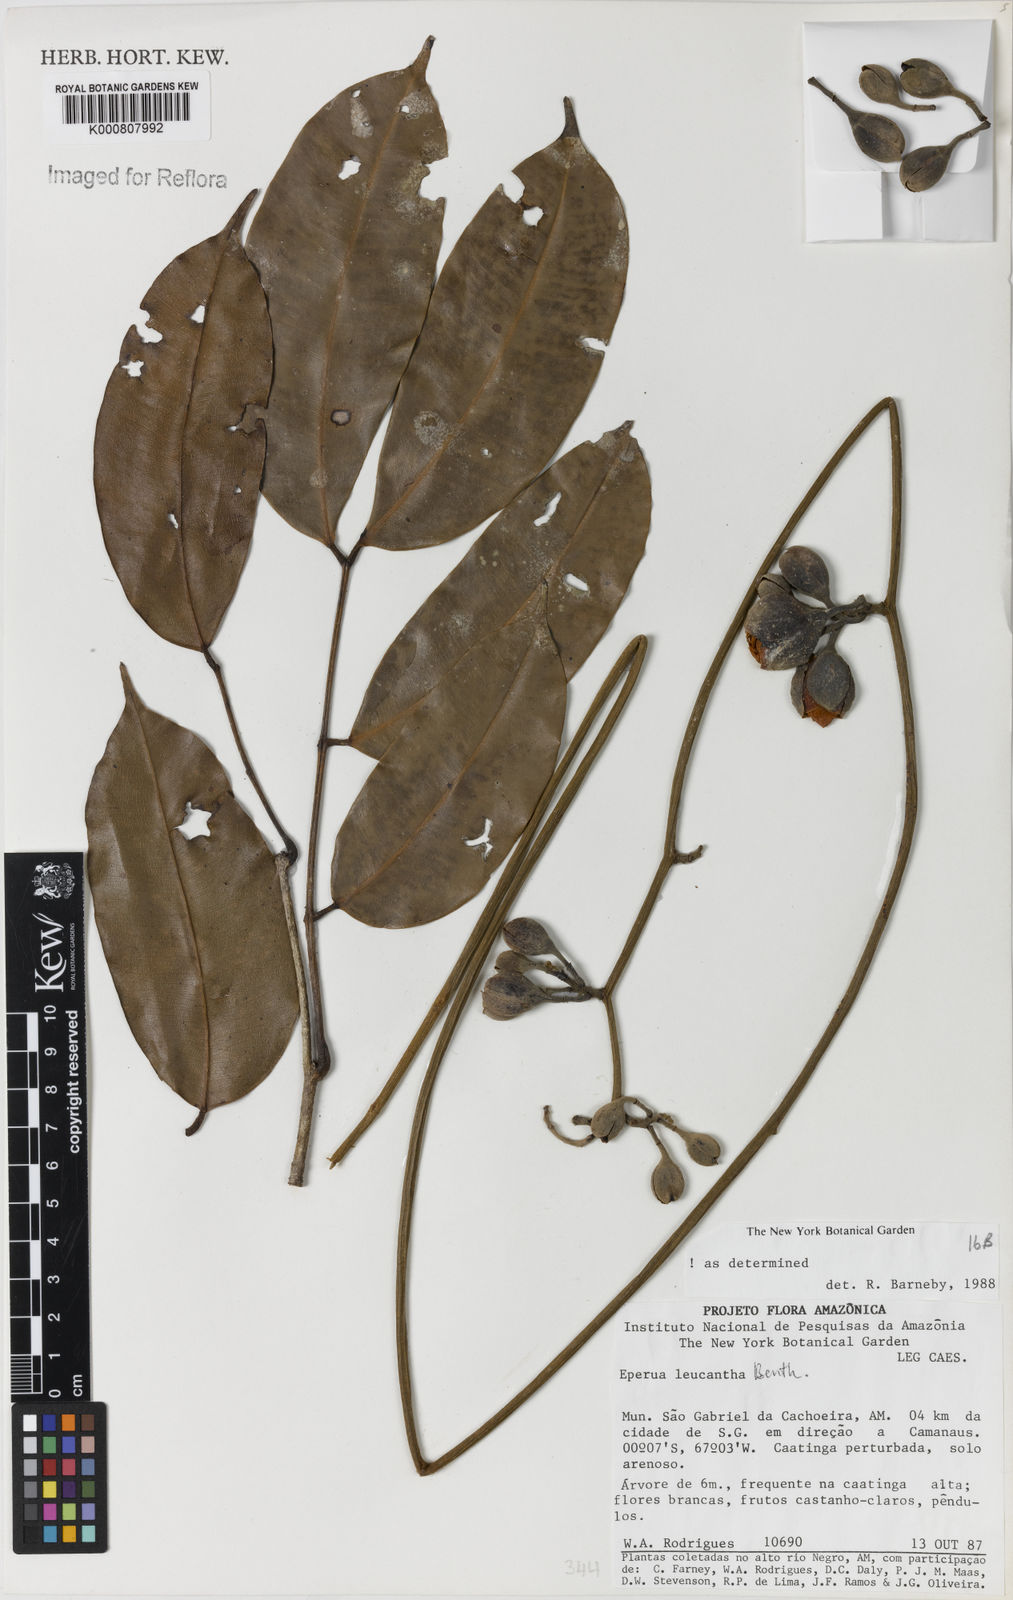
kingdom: Plantae
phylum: Tracheophyta
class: Magnoliopsida
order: Fabales
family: Fabaceae
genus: Eperua
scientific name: Eperua leucantha
